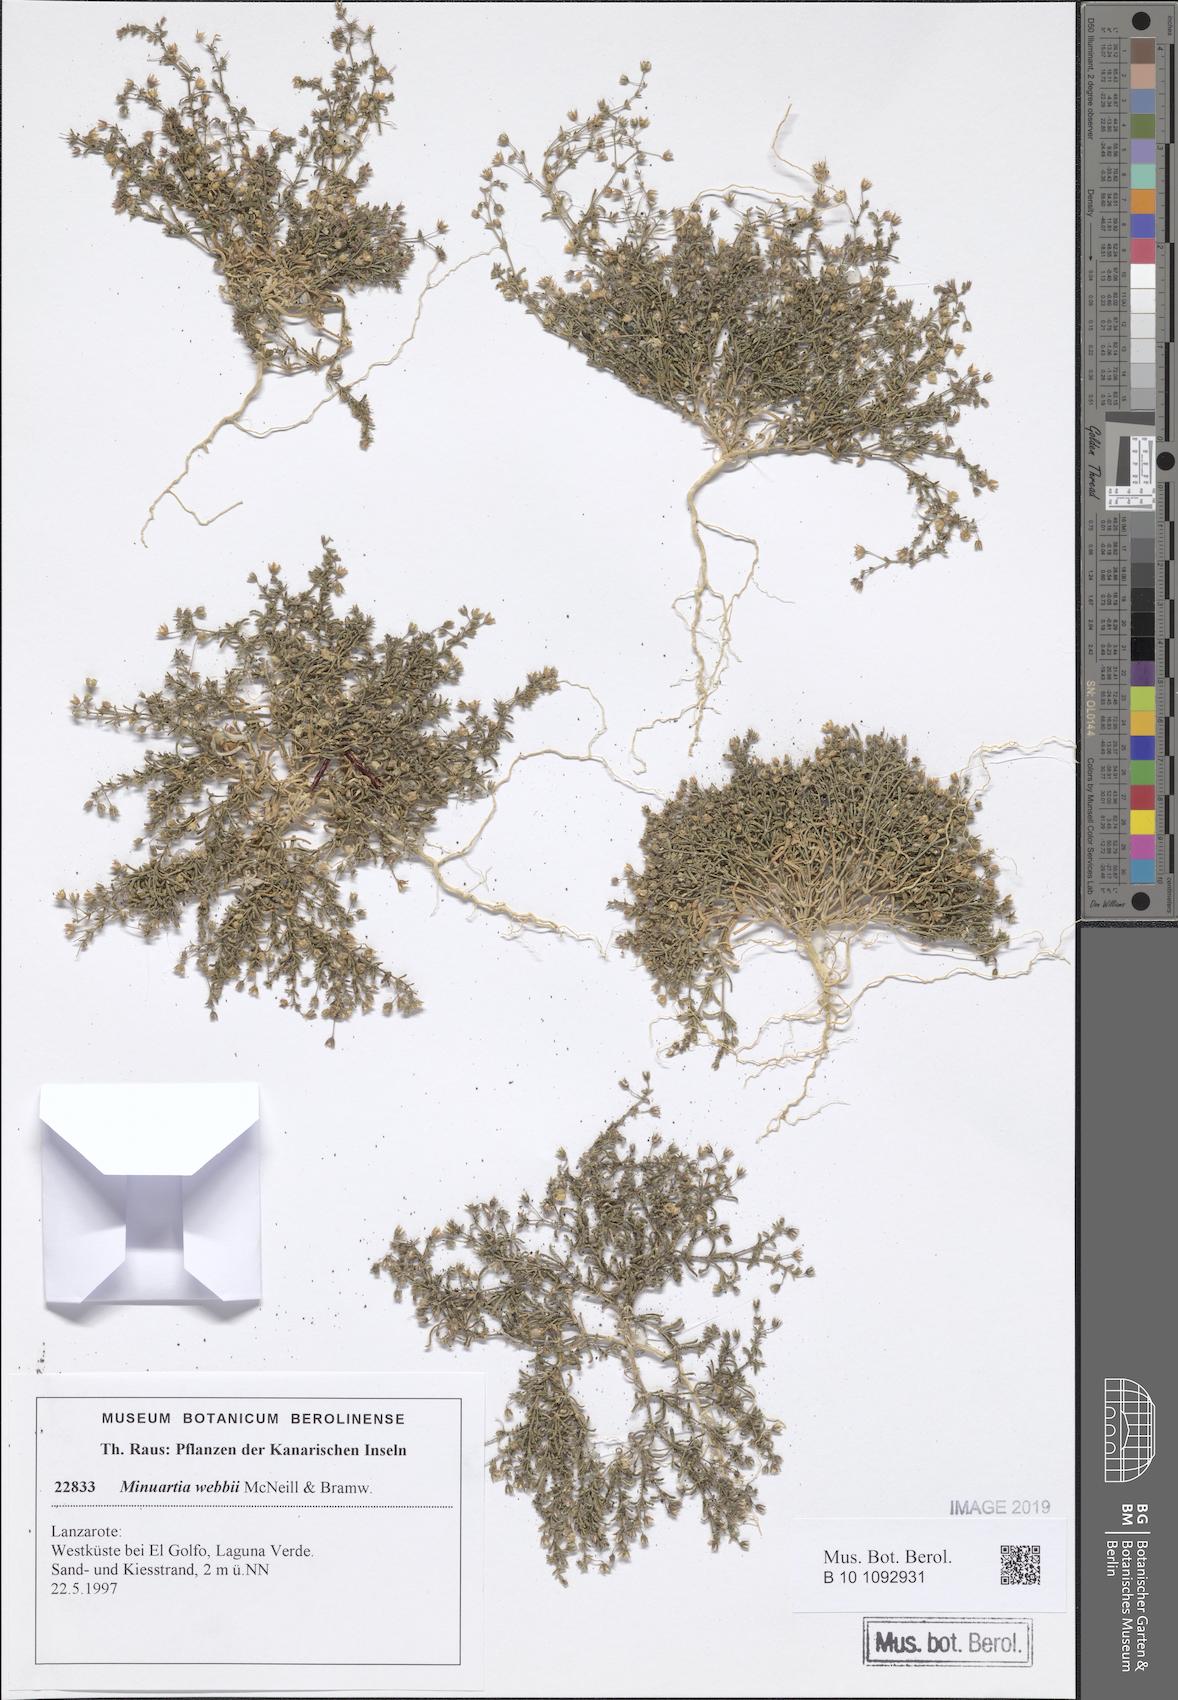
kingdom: Plantae
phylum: Tracheophyta
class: Magnoliopsida
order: Caryophyllales
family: Caryophyllaceae
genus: Rhodalsine
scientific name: Rhodalsine geniculata
